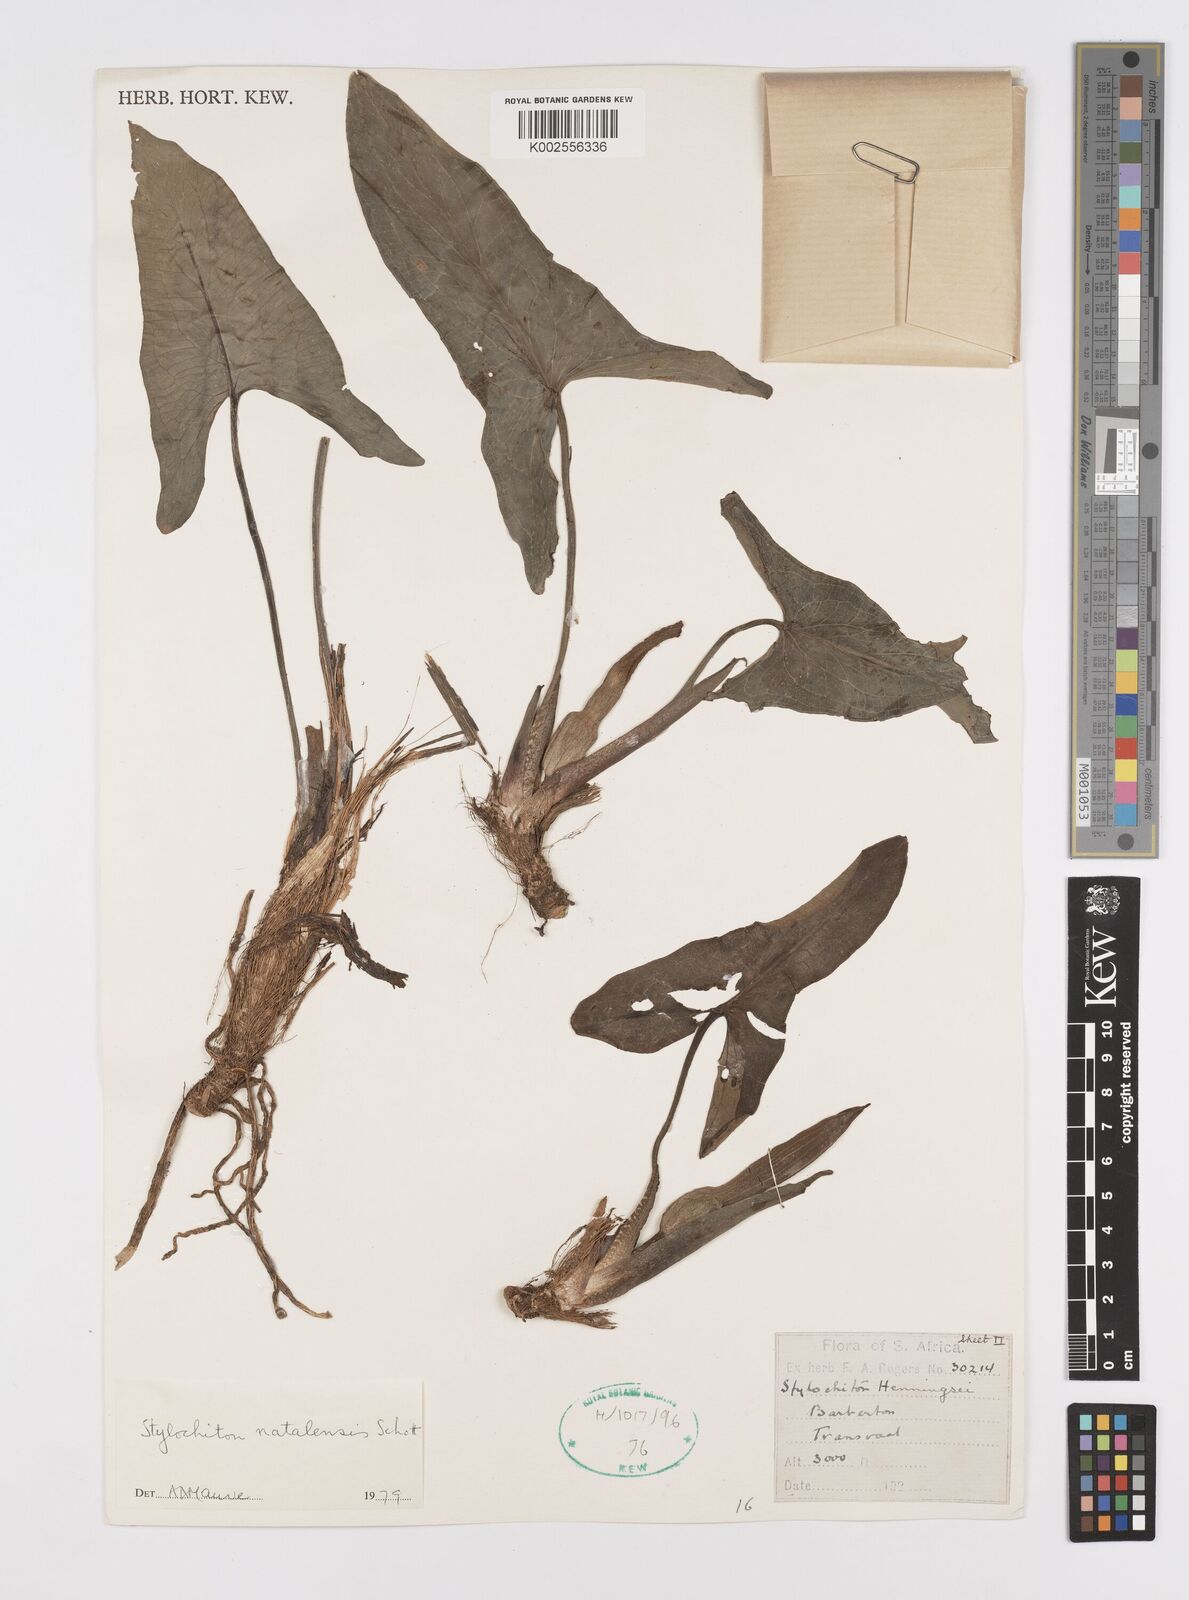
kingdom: Plantae
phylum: Tracheophyta
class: Liliopsida
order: Alismatales
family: Araceae
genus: Stylochaeton
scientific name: Stylochaeton natalense
